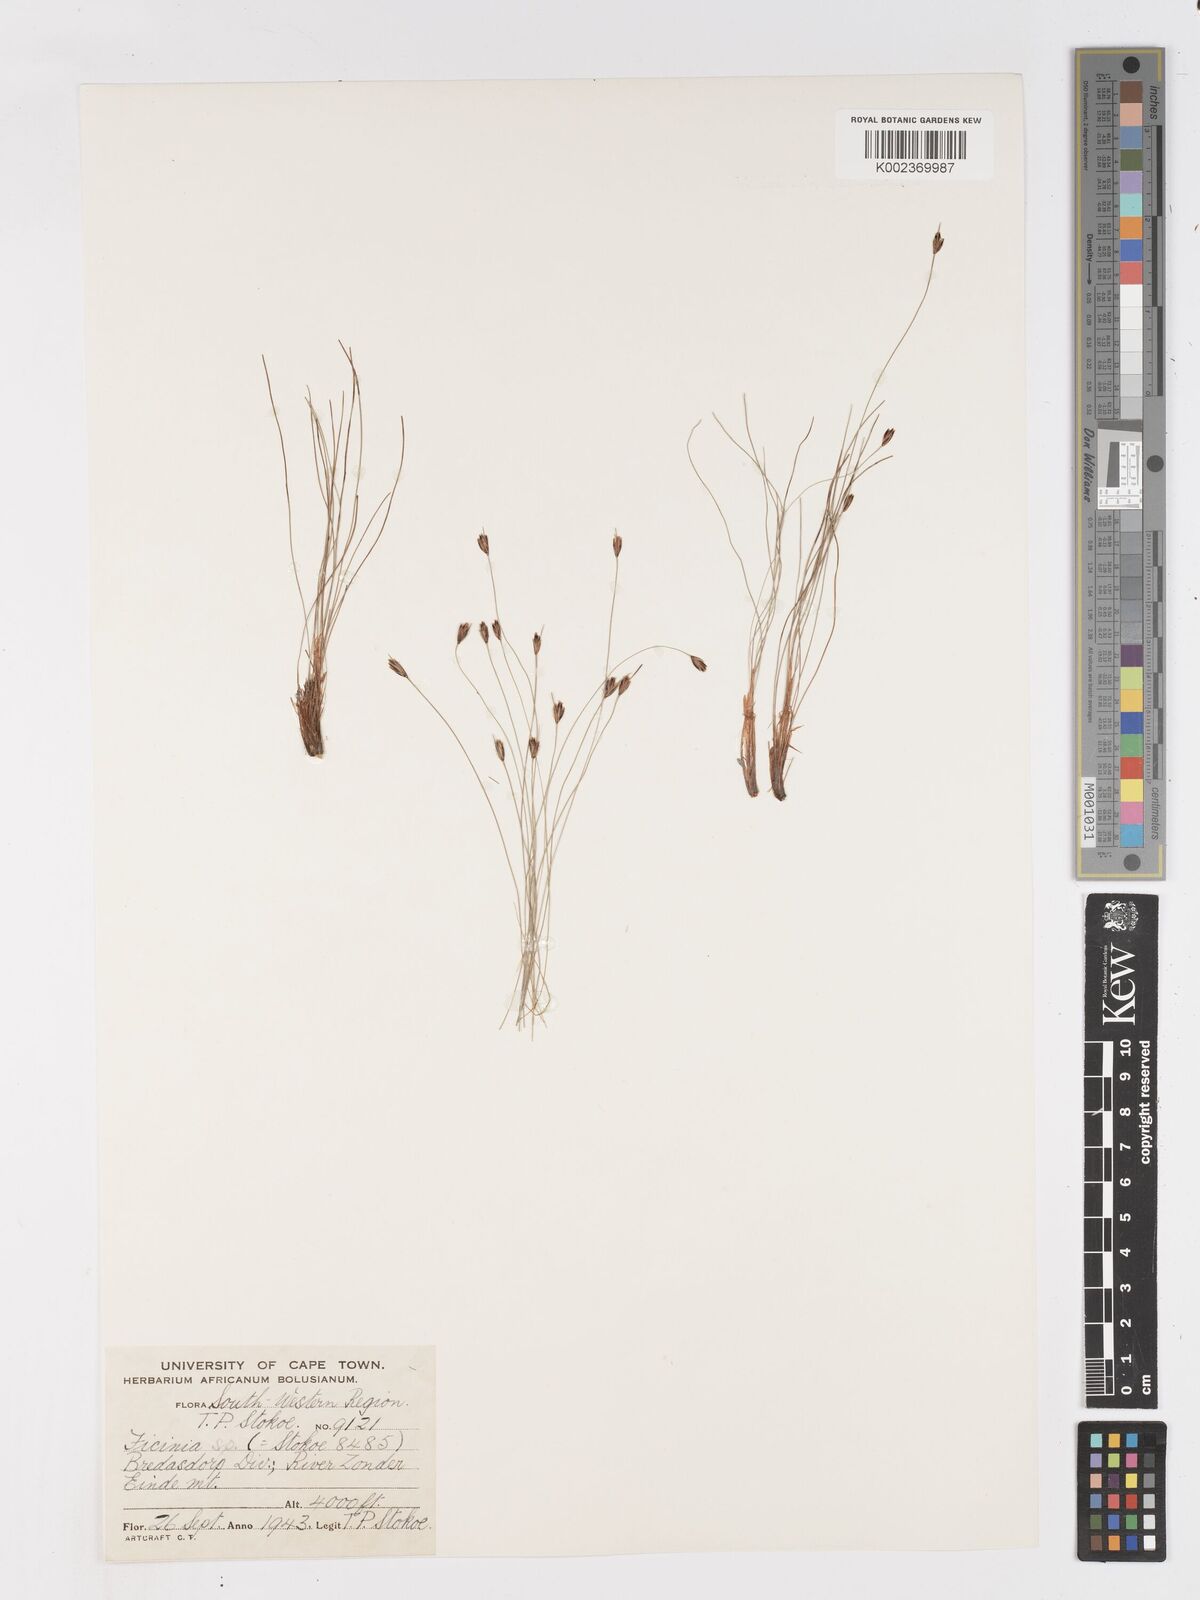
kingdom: Plantae
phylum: Tracheophyta
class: Liliopsida
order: Poales
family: Cyperaceae
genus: Ficinia
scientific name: Ficinia zeyheri
